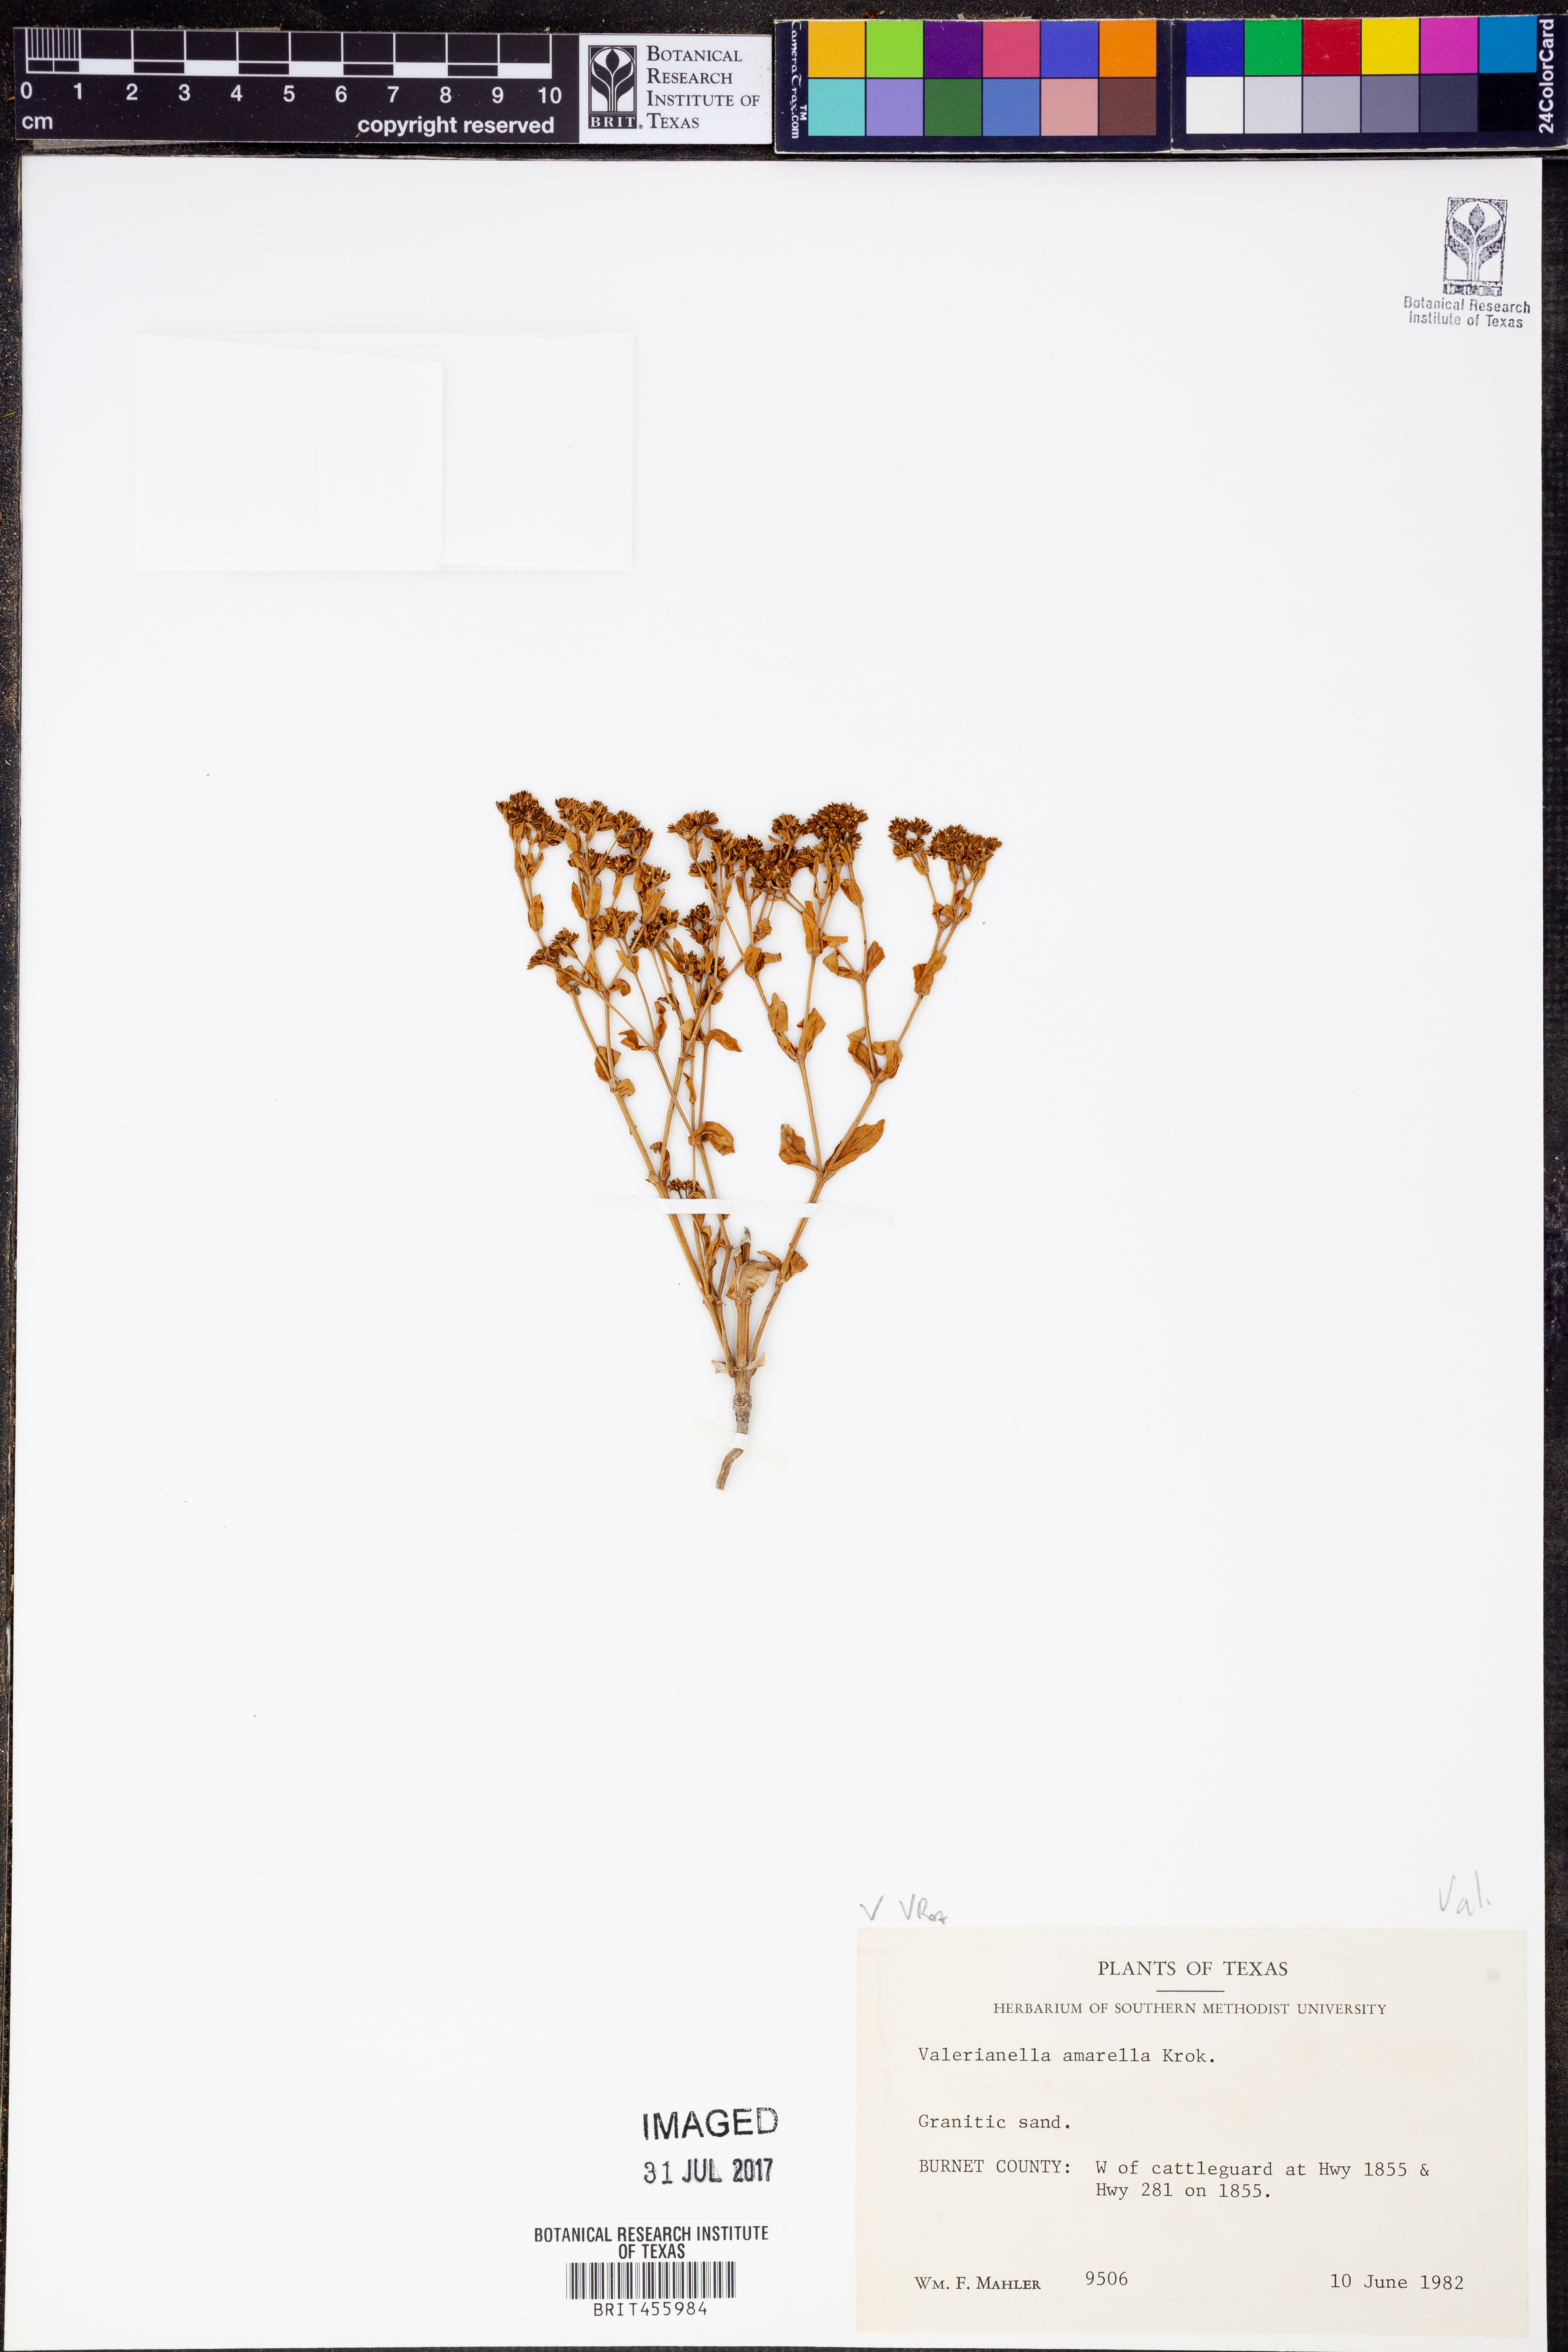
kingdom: Plantae
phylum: Tracheophyta
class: Magnoliopsida
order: Dipsacales
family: Caprifoliaceae
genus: Valerianella
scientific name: Valerianella amarella
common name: Hariy cornsalad
